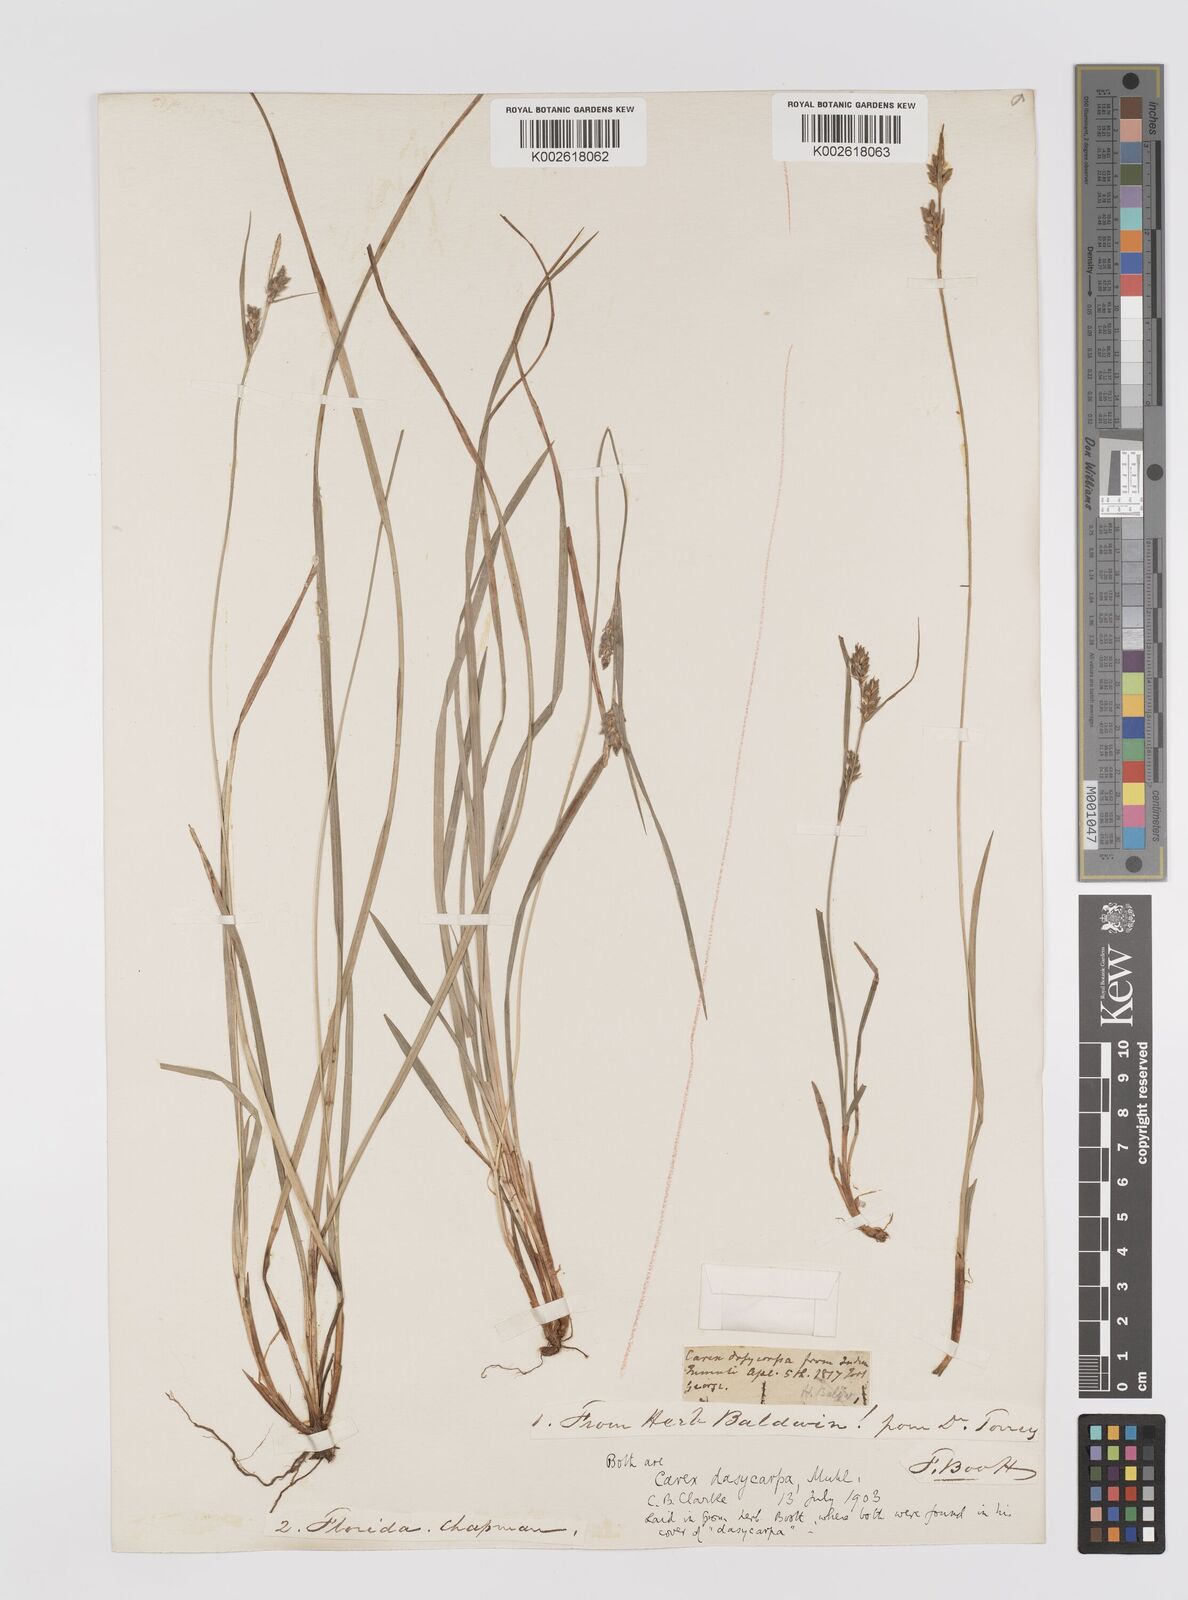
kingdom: Plantae
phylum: Tracheophyta
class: Liliopsida
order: Poales
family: Cyperaceae
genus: Carex
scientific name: Carex dasycarpa
